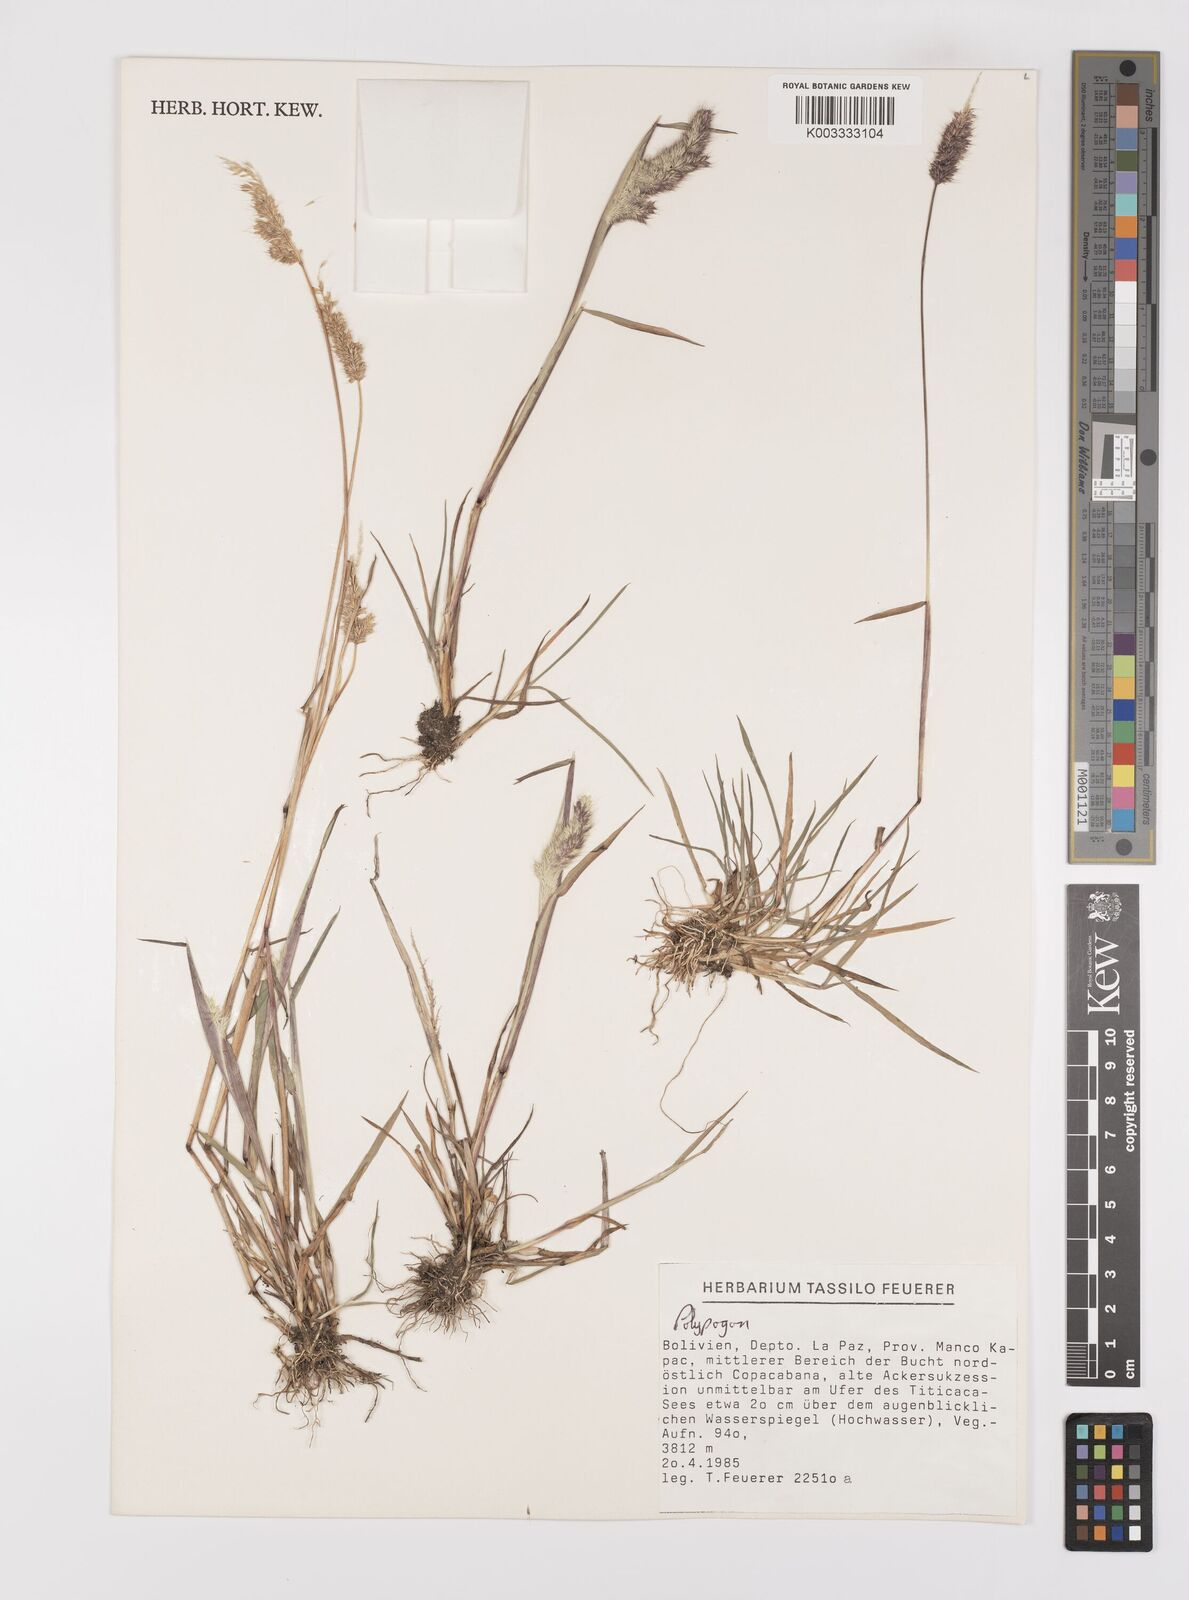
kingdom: Plantae
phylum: Tracheophyta
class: Liliopsida
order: Poales
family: Poaceae
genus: Polypogon
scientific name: Polypogon interruptus
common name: Ditch polypogon
